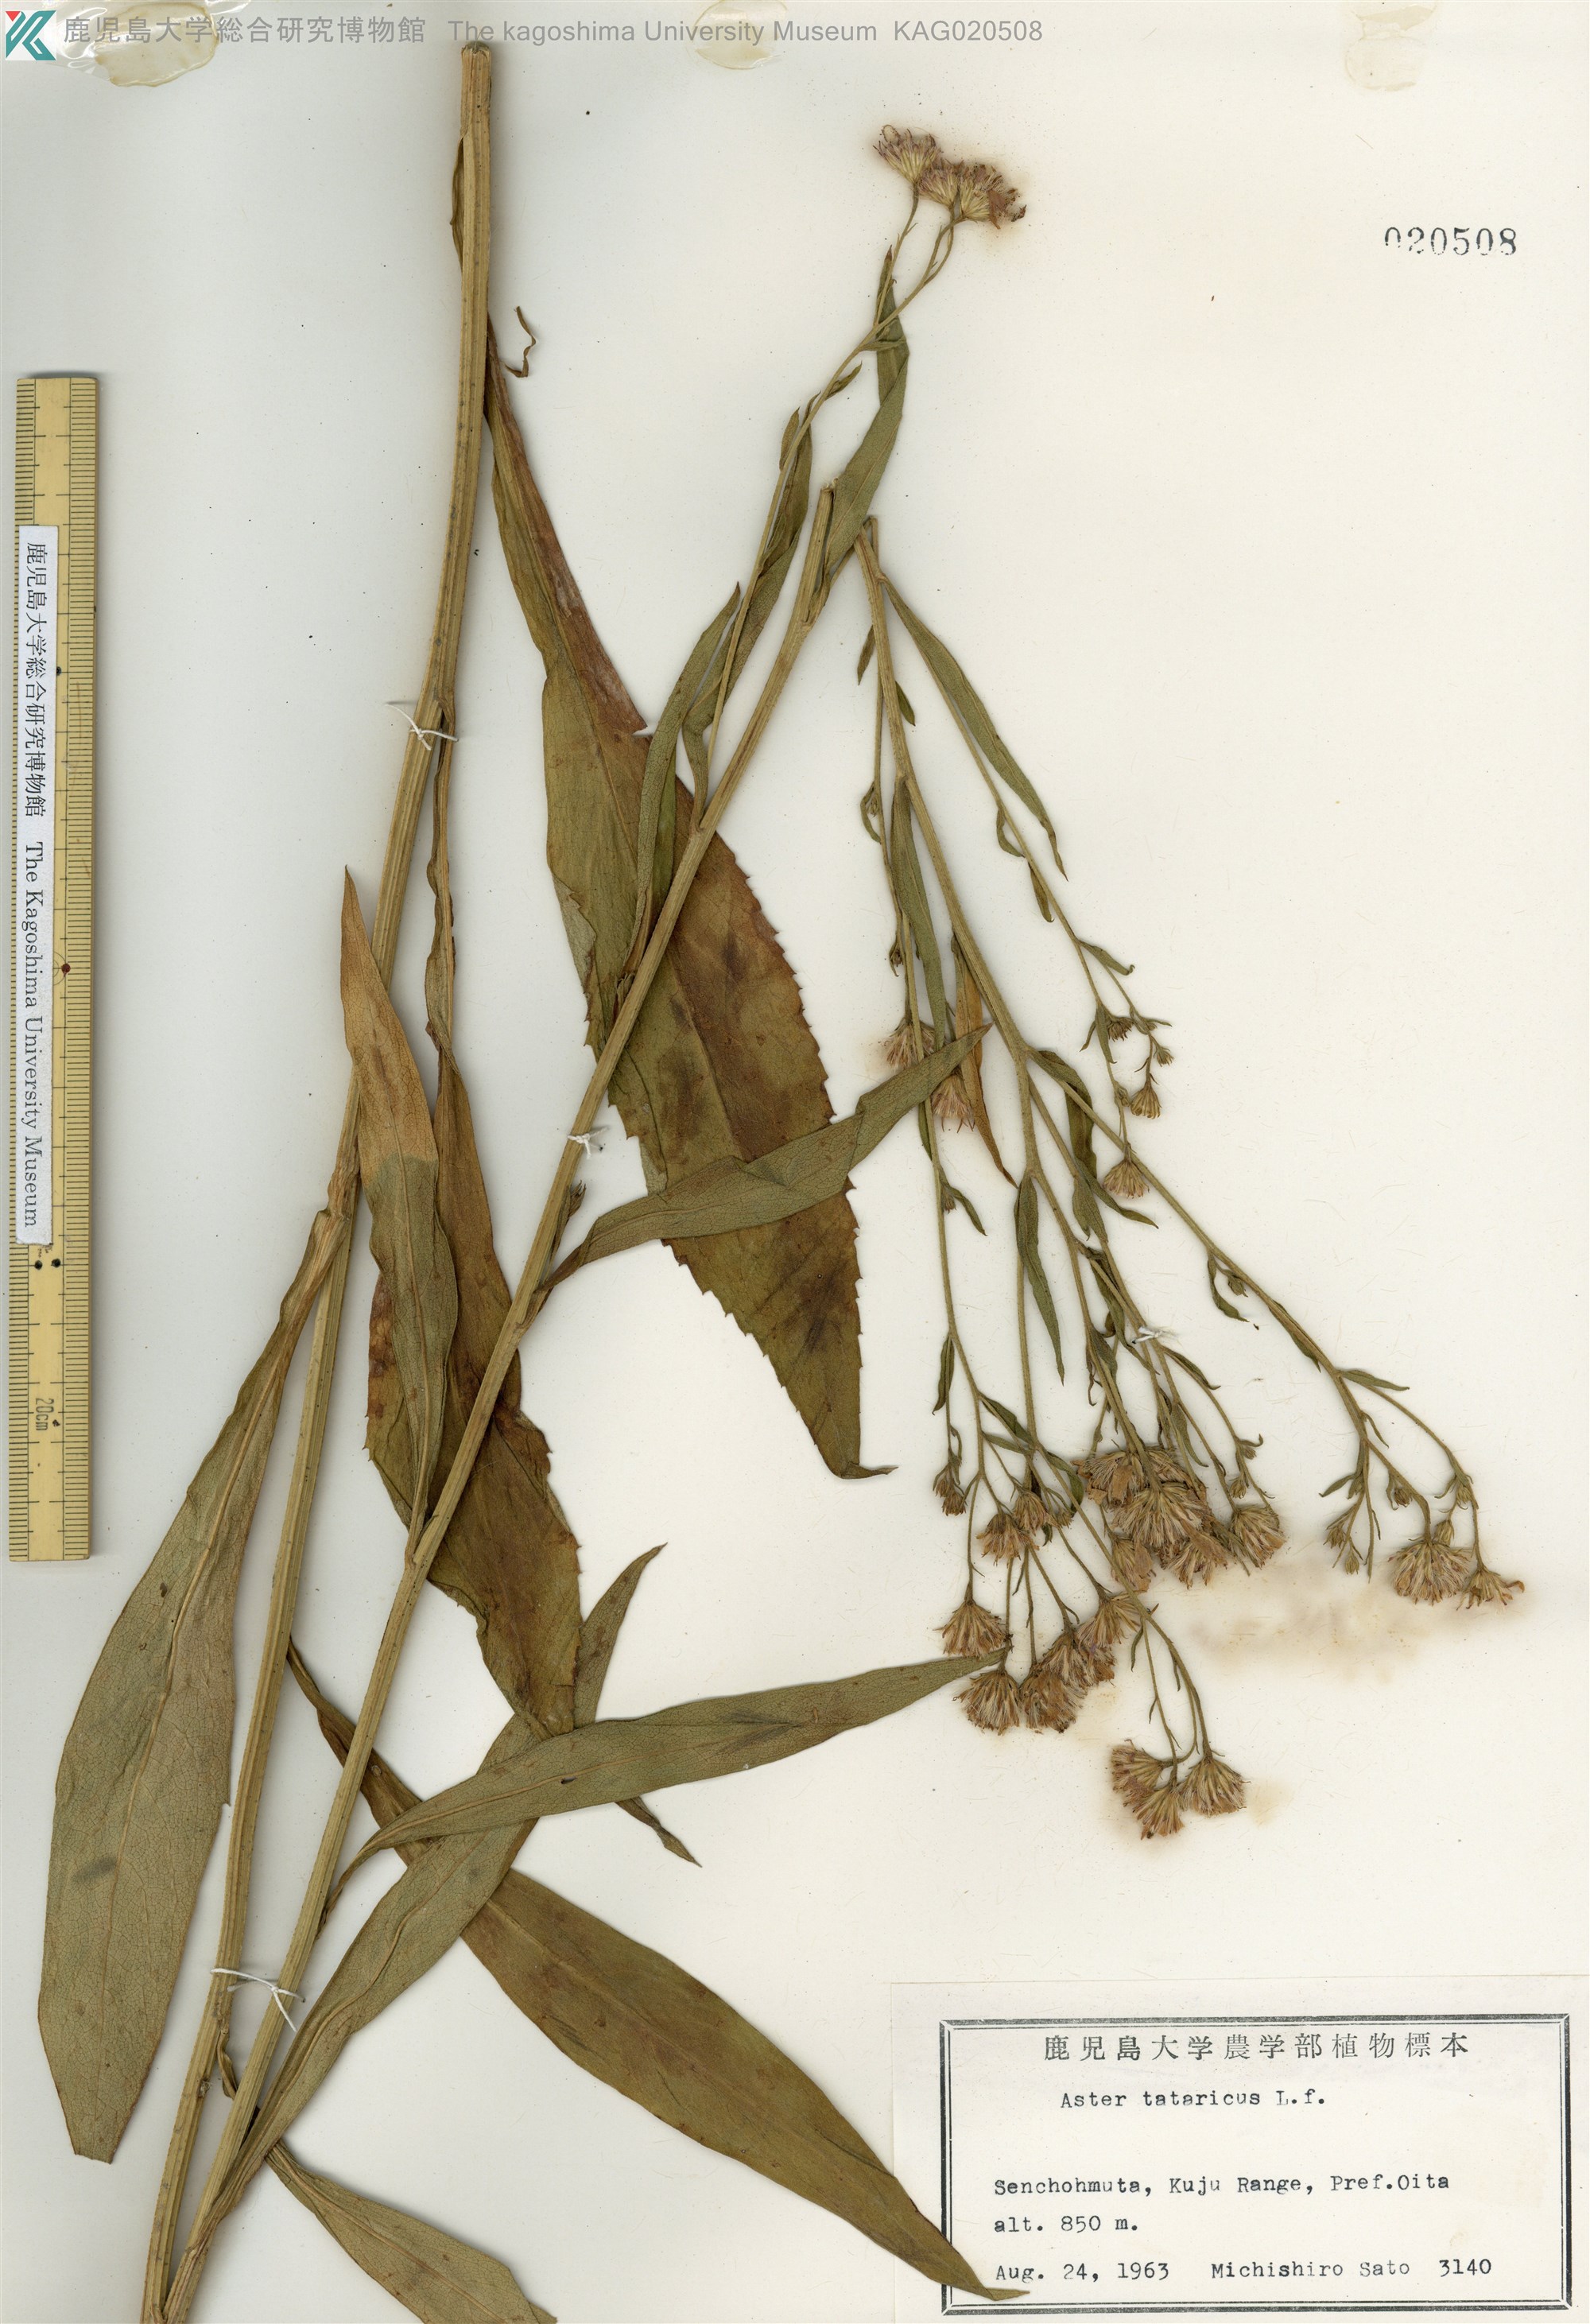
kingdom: Plantae
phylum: Tracheophyta
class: Magnoliopsida
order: Asterales
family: Asteraceae
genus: Aster
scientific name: Aster tataricus
